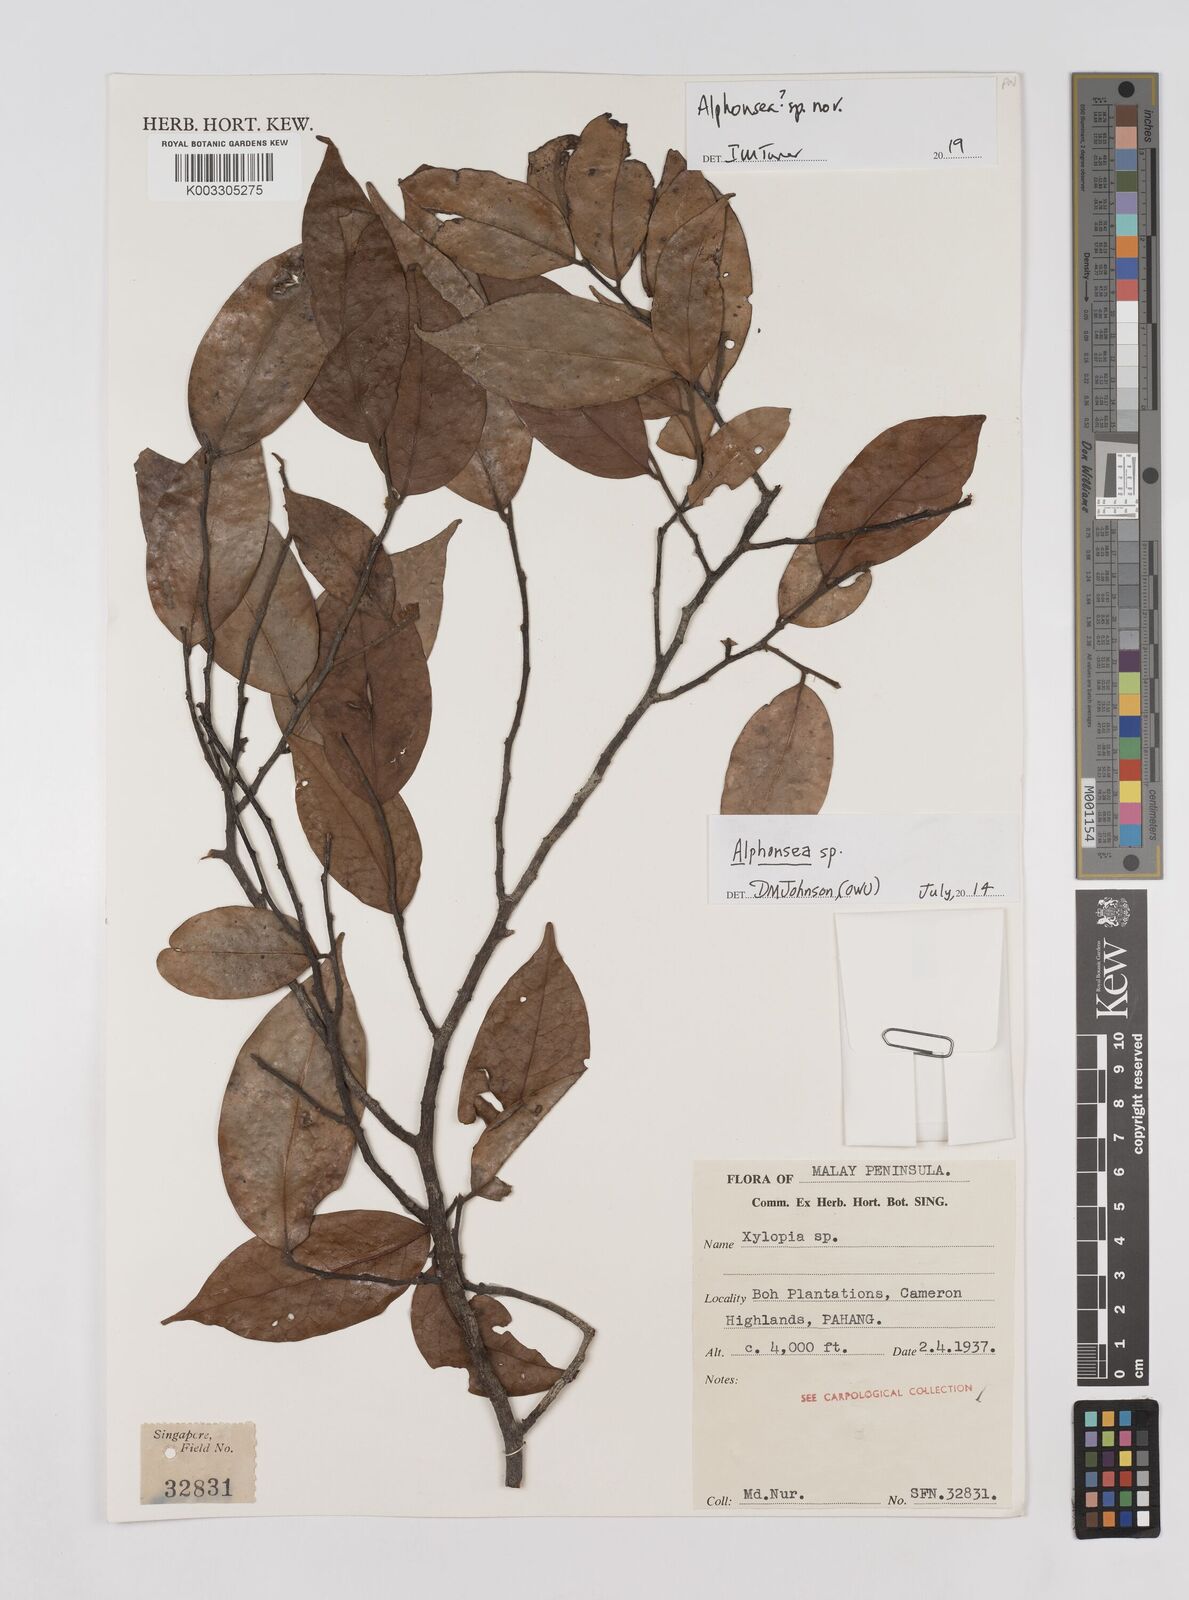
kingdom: Plantae
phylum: Tracheophyta
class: Magnoliopsida
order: Magnoliales
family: Annonaceae
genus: Alphonsea
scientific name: Alphonsea
